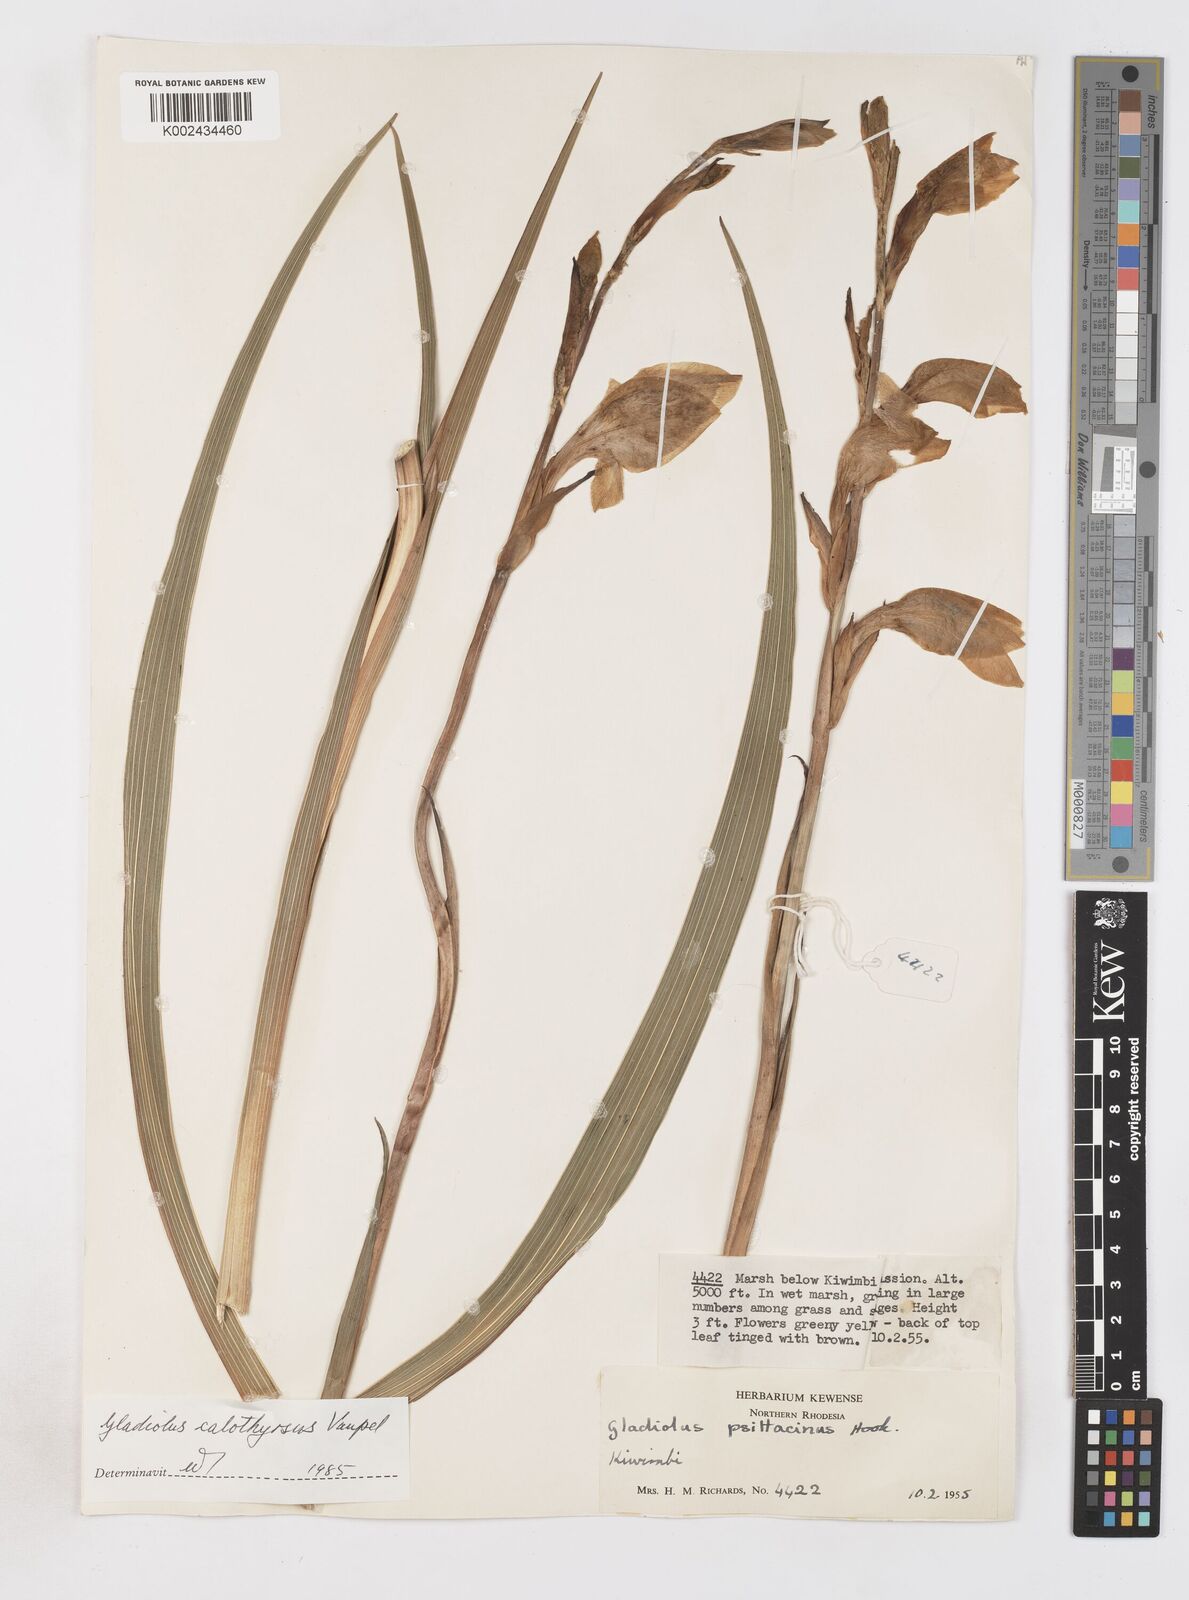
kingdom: Plantae
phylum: Tracheophyta
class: Liliopsida
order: Asparagales
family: Iridaceae
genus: Gladiolus
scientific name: Gladiolus dalenii
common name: Cornflag
